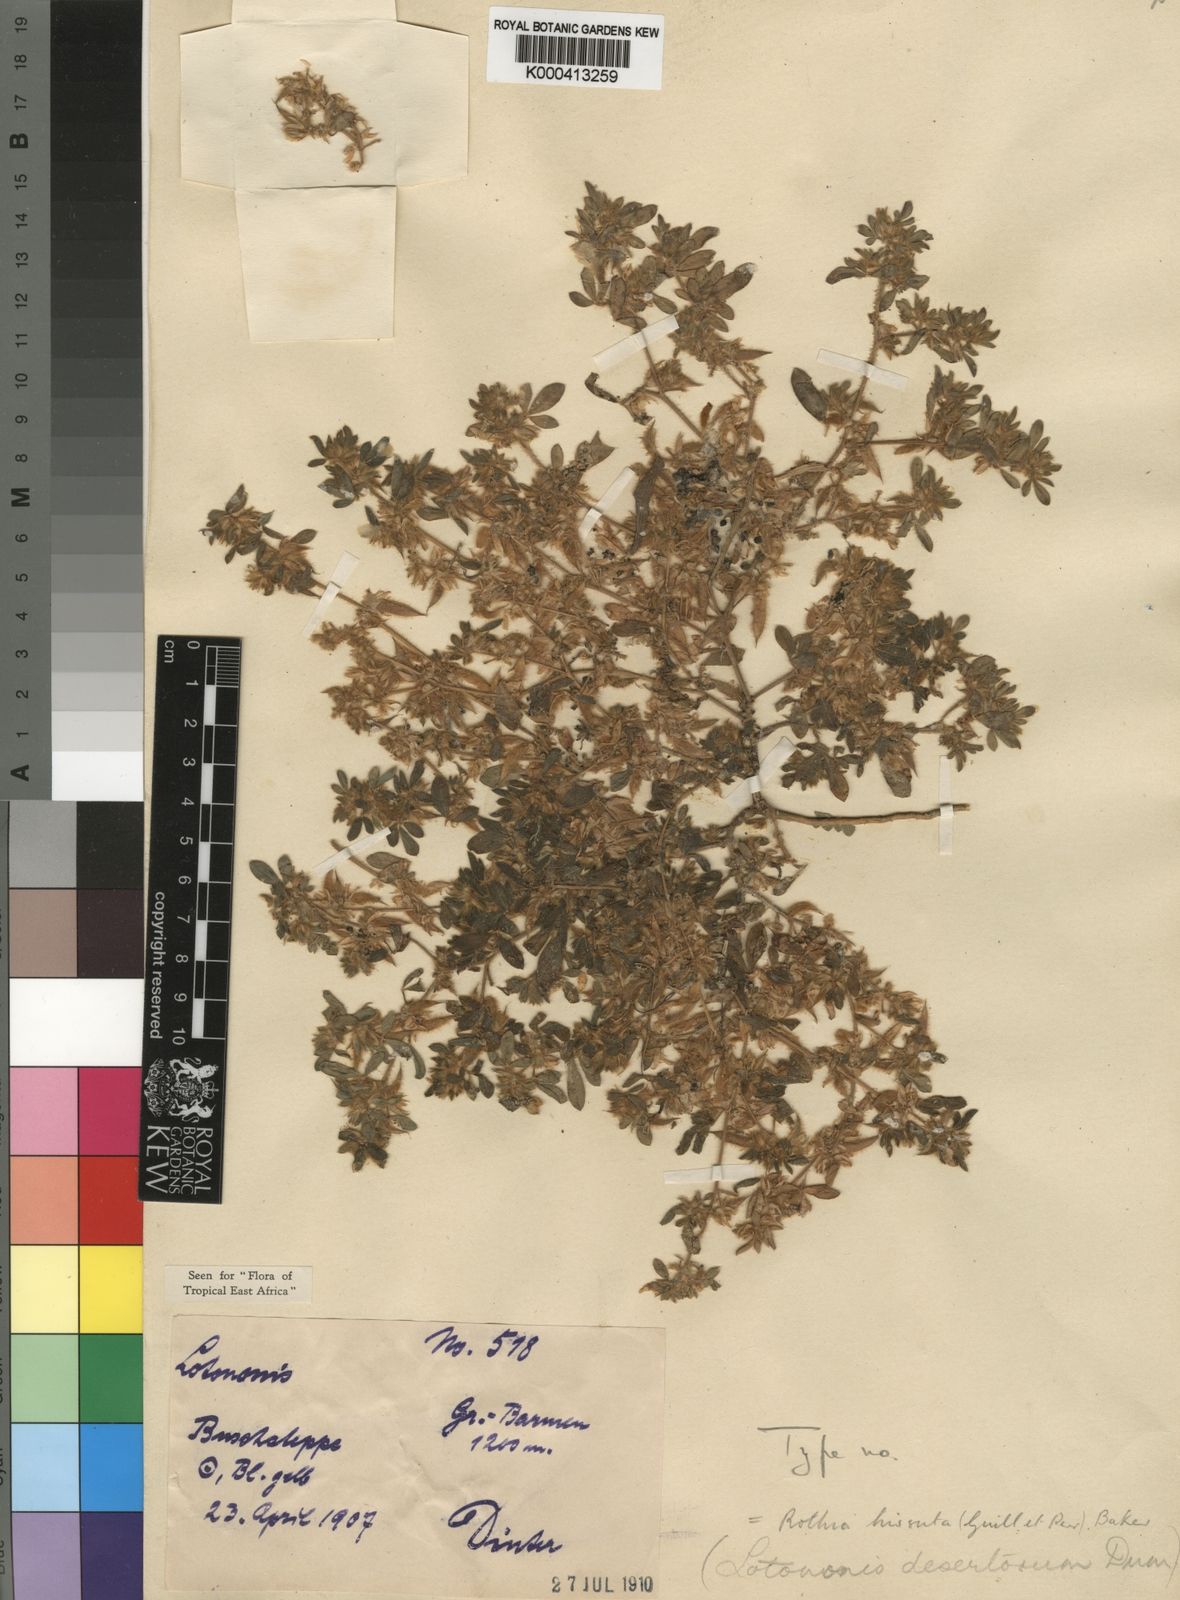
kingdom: Plantae
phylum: Tracheophyta
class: Magnoliopsida
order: Fabales
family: Fabaceae
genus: Rothia
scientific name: Rothia hirsuta
